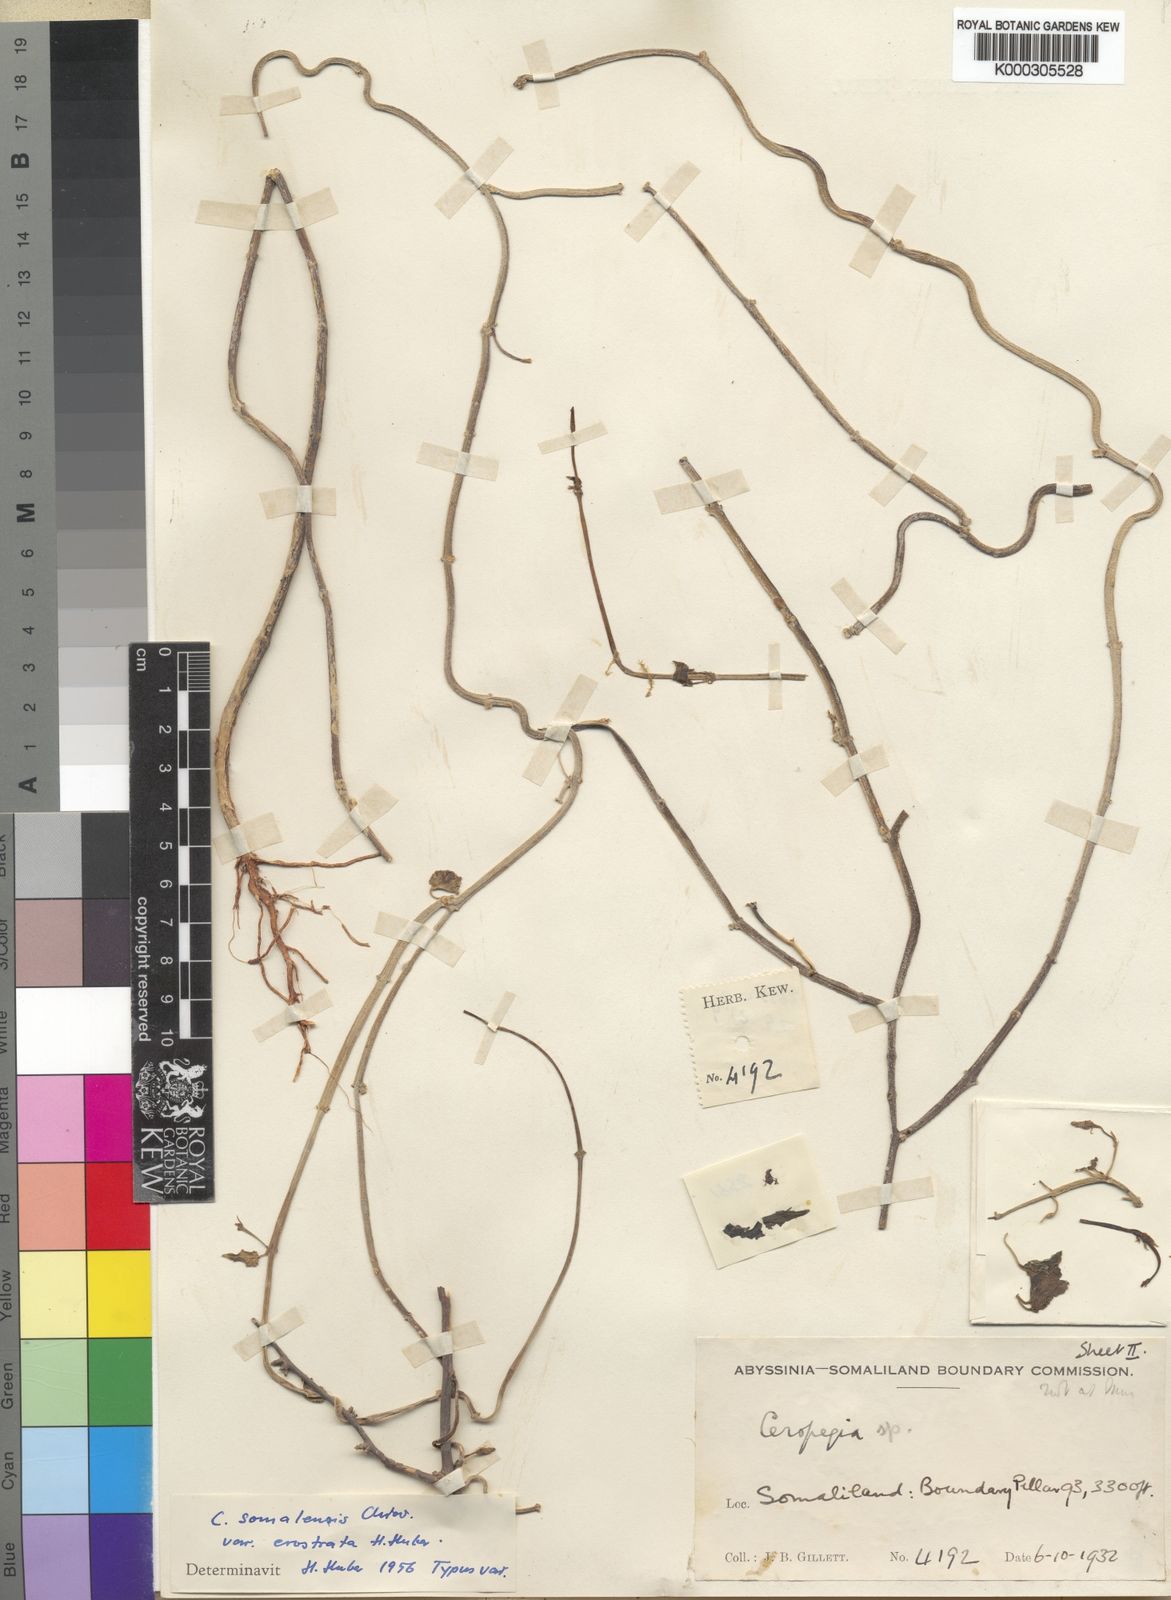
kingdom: Plantae
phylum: Tracheophyta
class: Magnoliopsida
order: Gentianales
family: Apocynaceae
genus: Ceropegia
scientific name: Ceropegia somalensis
